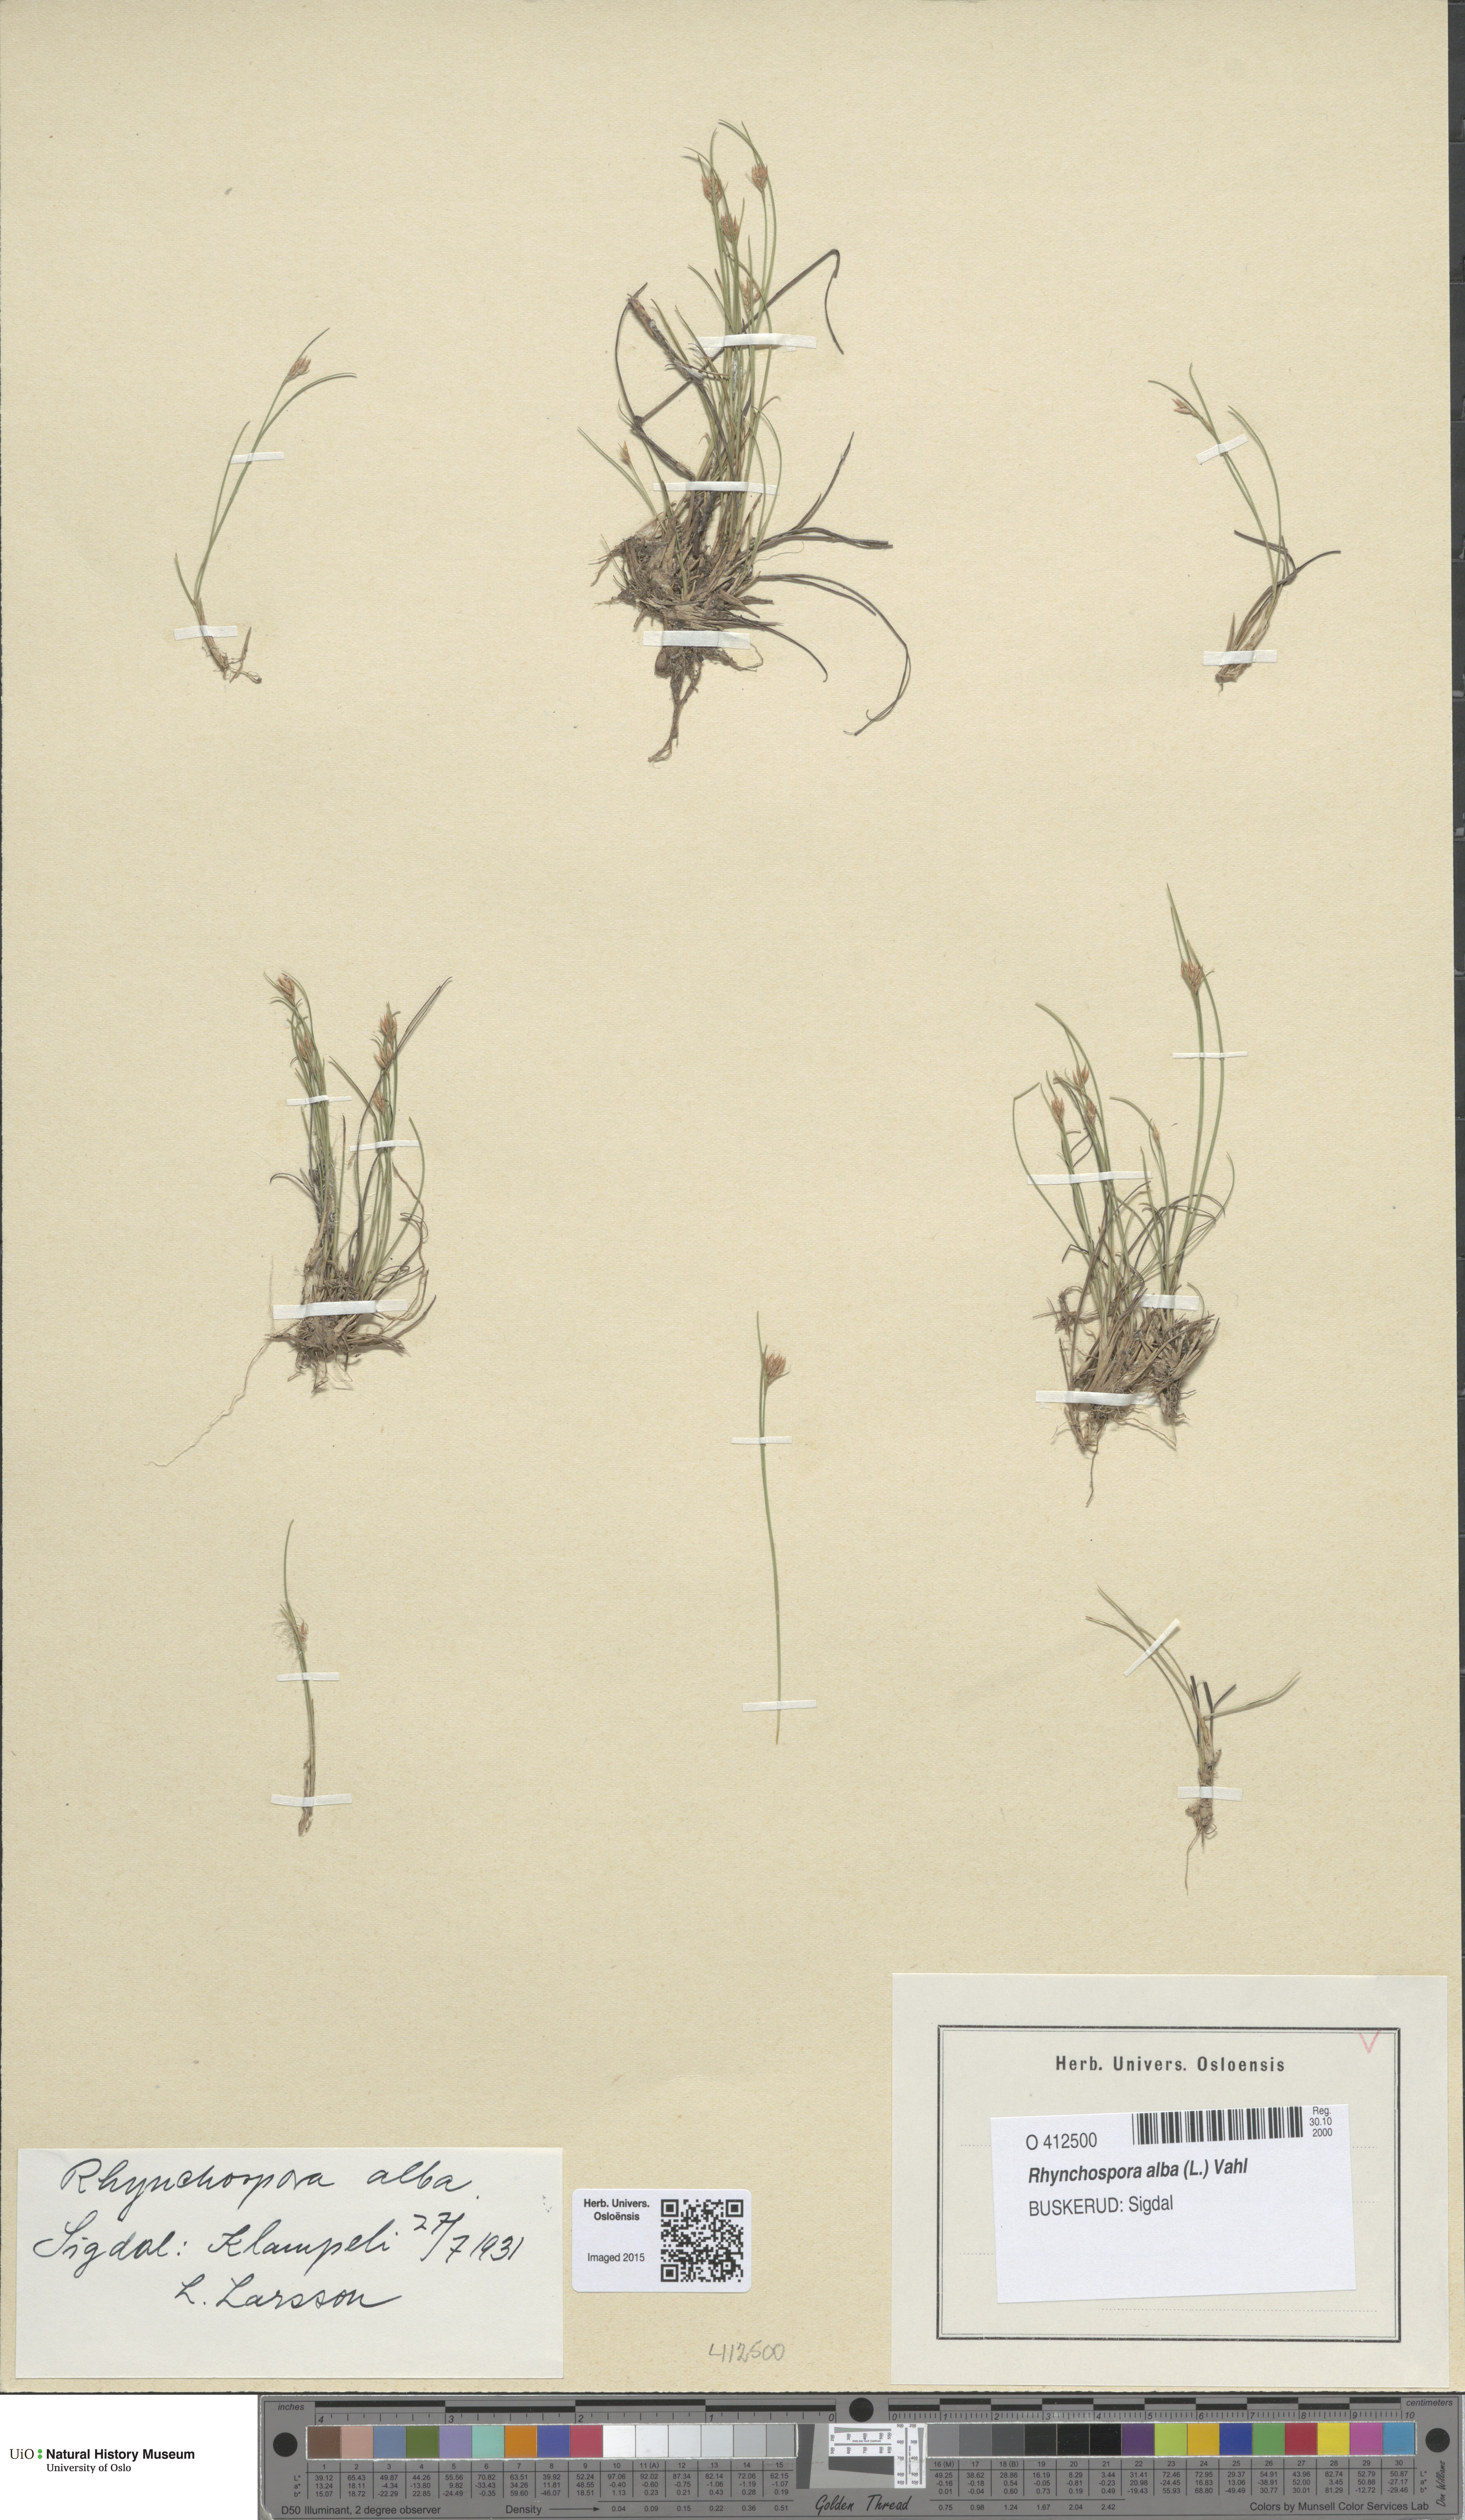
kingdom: Plantae
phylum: Tracheophyta
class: Liliopsida
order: Poales
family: Cyperaceae
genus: Rhynchospora
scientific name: Rhynchospora alba
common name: White beak-sedge
